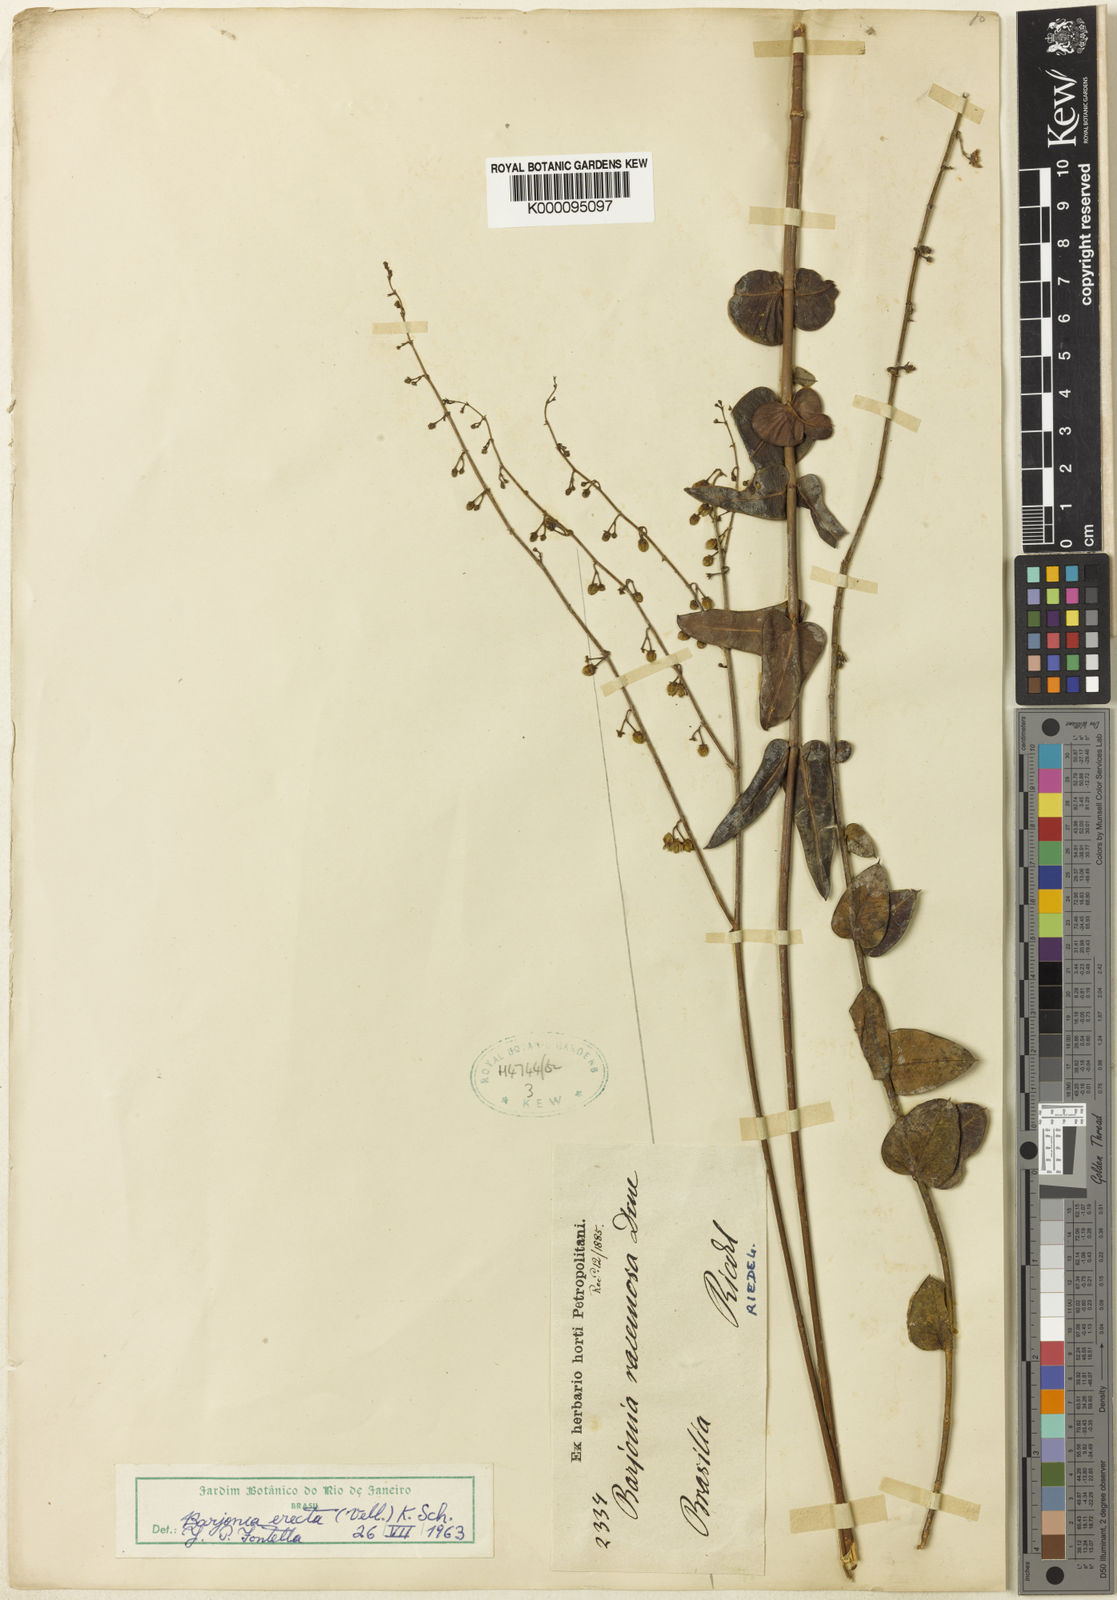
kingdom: Plantae
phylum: Tracheophyta
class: Magnoliopsida
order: Gentianales
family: Apocynaceae
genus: Barjonia
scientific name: Barjonia erecta
